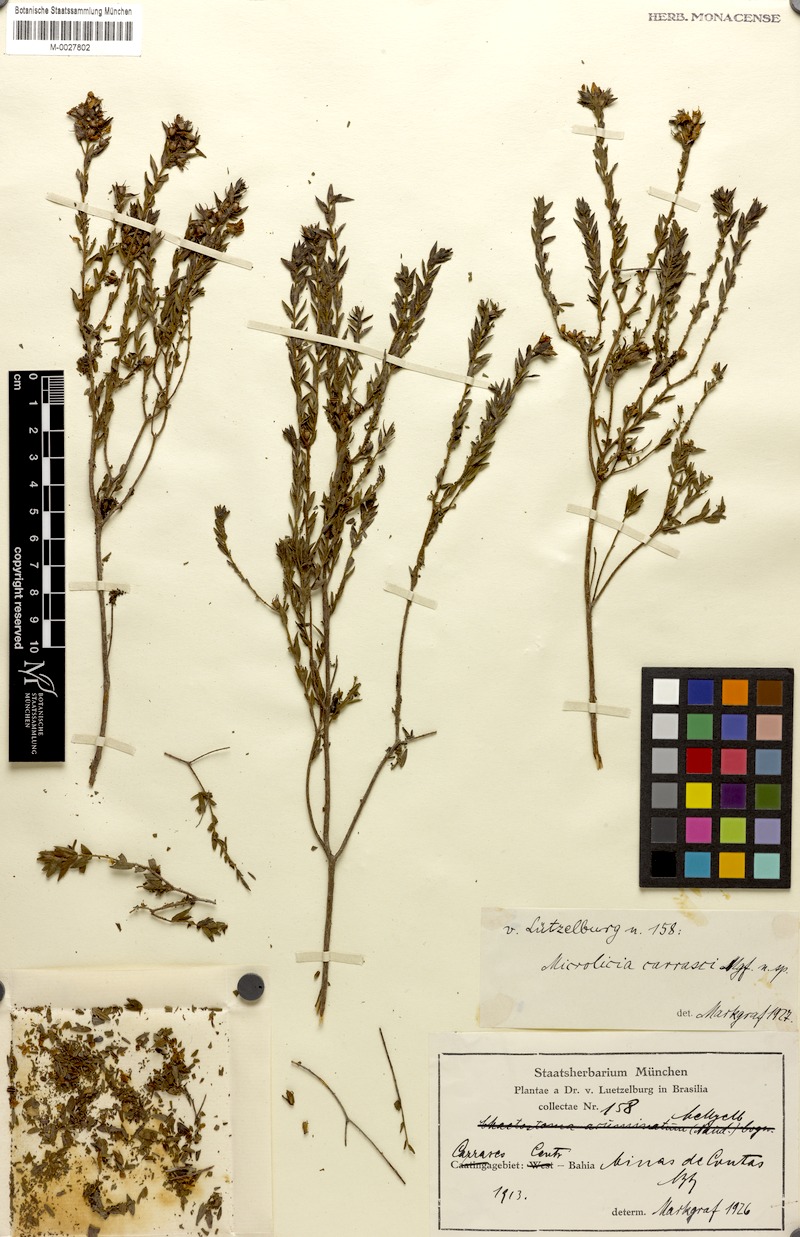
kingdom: Plantae
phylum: Tracheophyta
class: Magnoliopsida
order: Myrtales
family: Melastomataceae
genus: Microlicia
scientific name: Microlicia luetzelburgii
